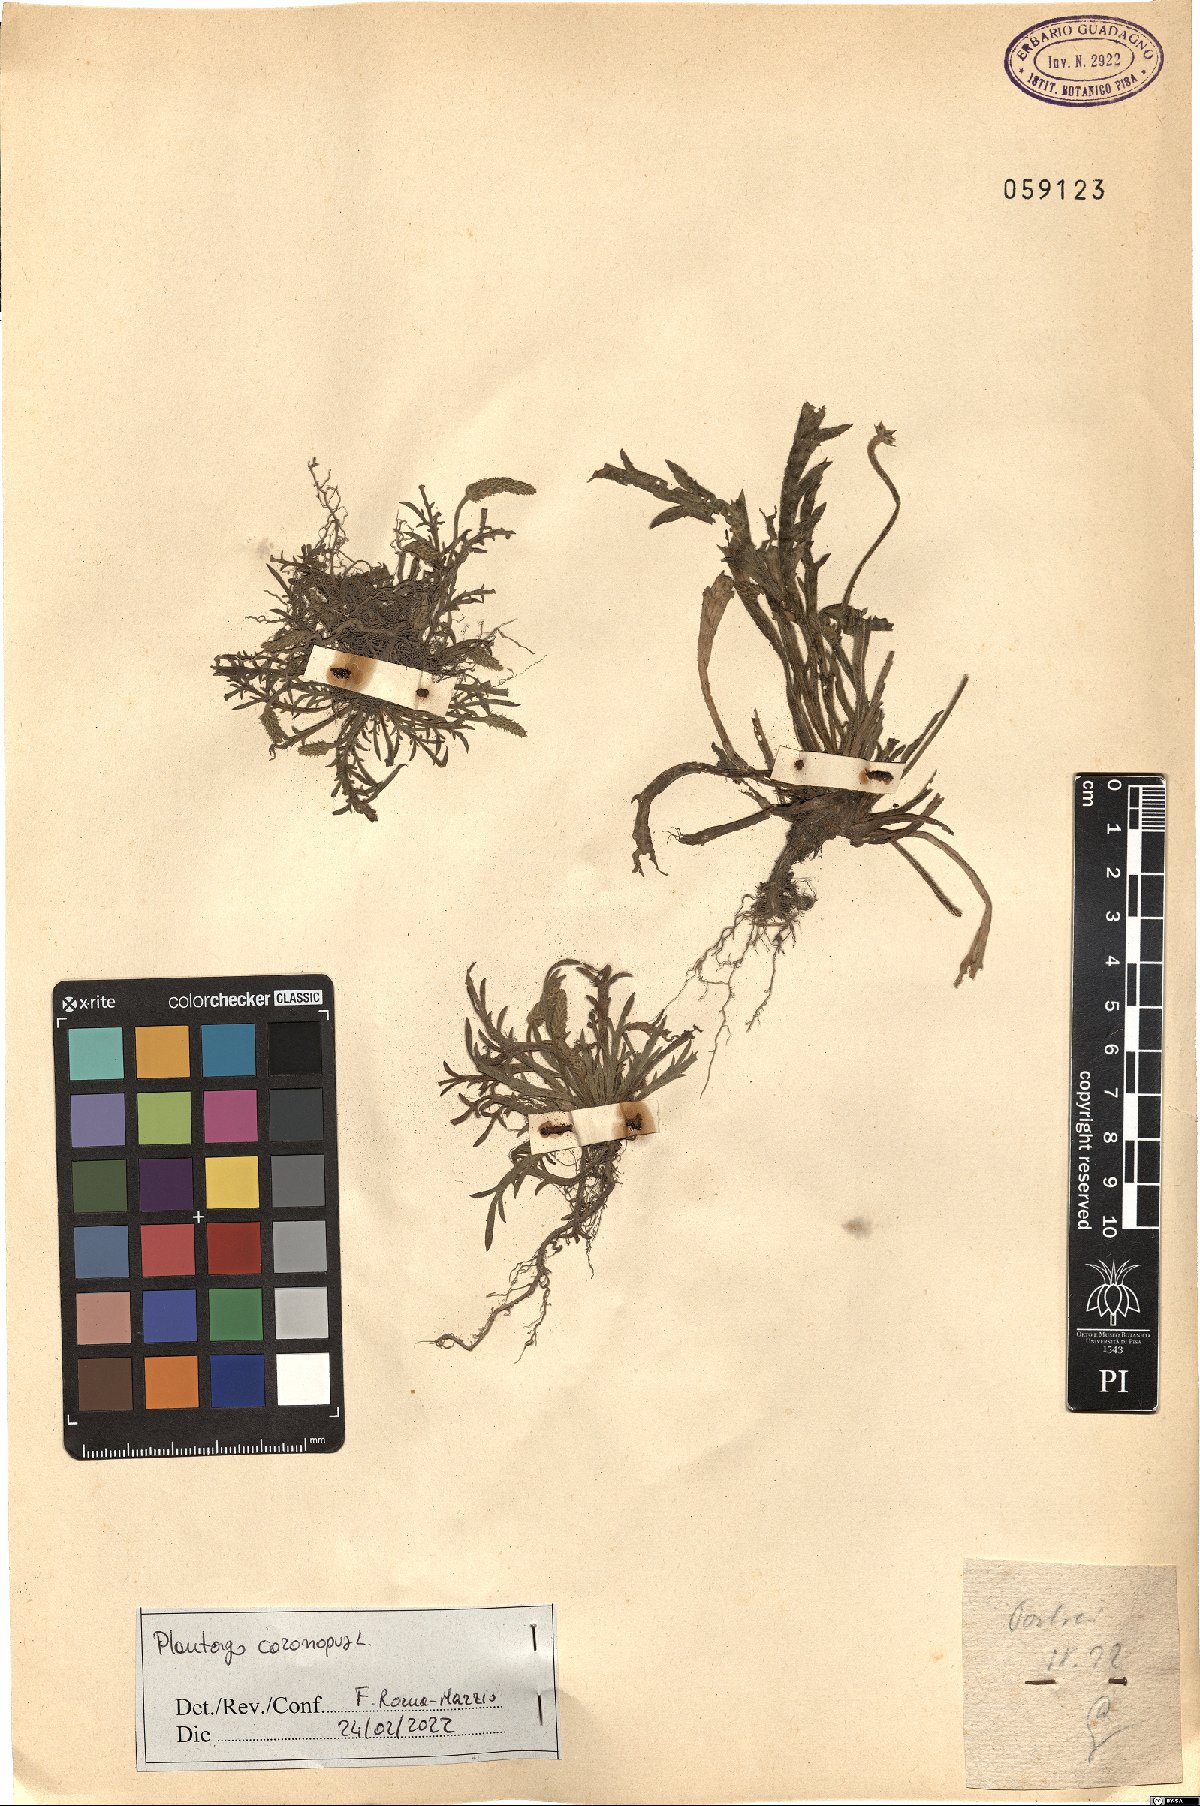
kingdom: Plantae
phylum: Tracheophyta
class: Magnoliopsida
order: Lamiales
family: Plantaginaceae
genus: Plantago
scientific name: Plantago coronopus
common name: Buck's-horn plantain
